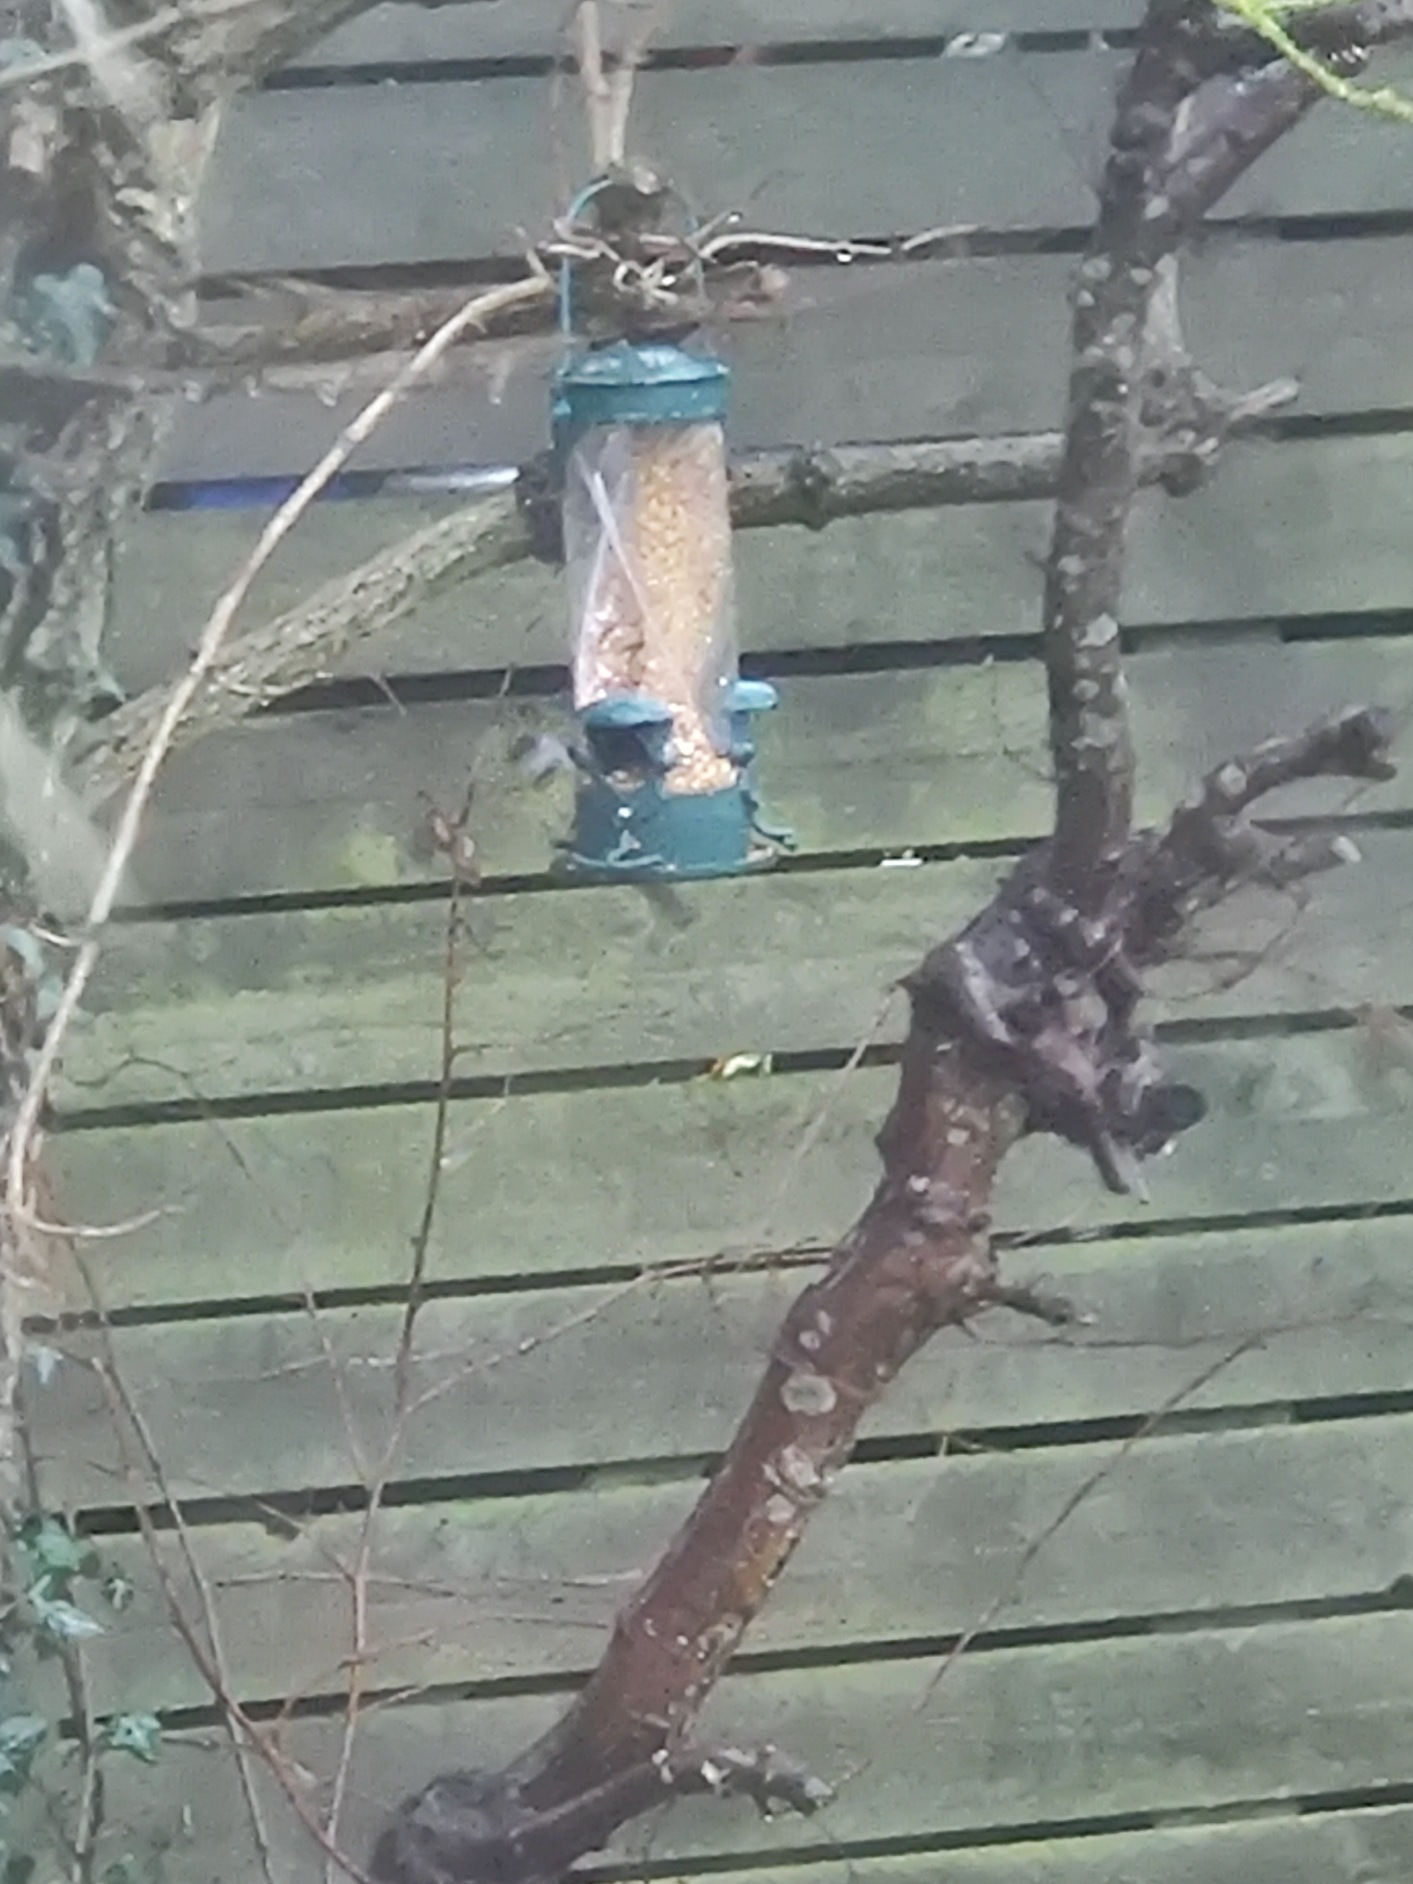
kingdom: Animalia
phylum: Chordata
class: Aves
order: Passeriformes
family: Paridae
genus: Parus
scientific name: Parus major
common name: Musvit
